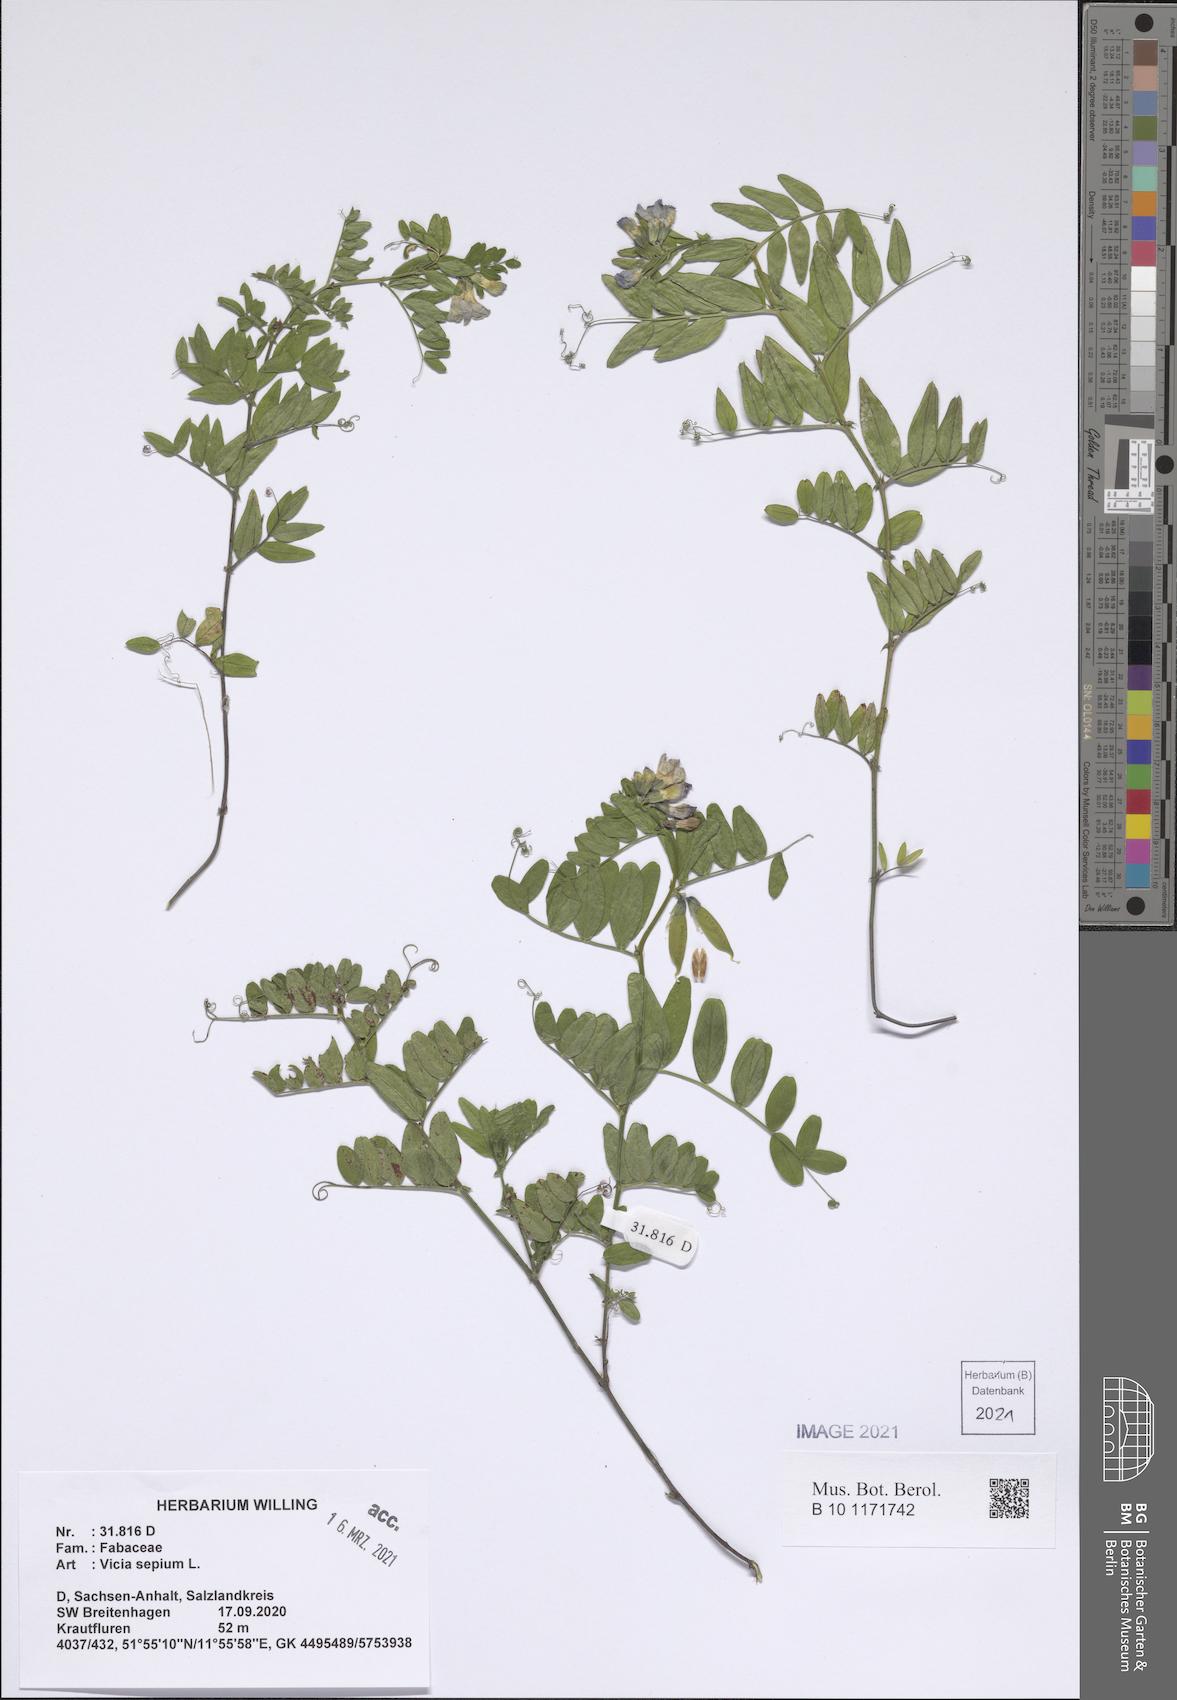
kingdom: Plantae
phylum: Tracheophyta
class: Magnoliopsida
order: Fabales
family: Fabaceae
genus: Vicia
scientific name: Vicia sepium
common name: Bush vetch
